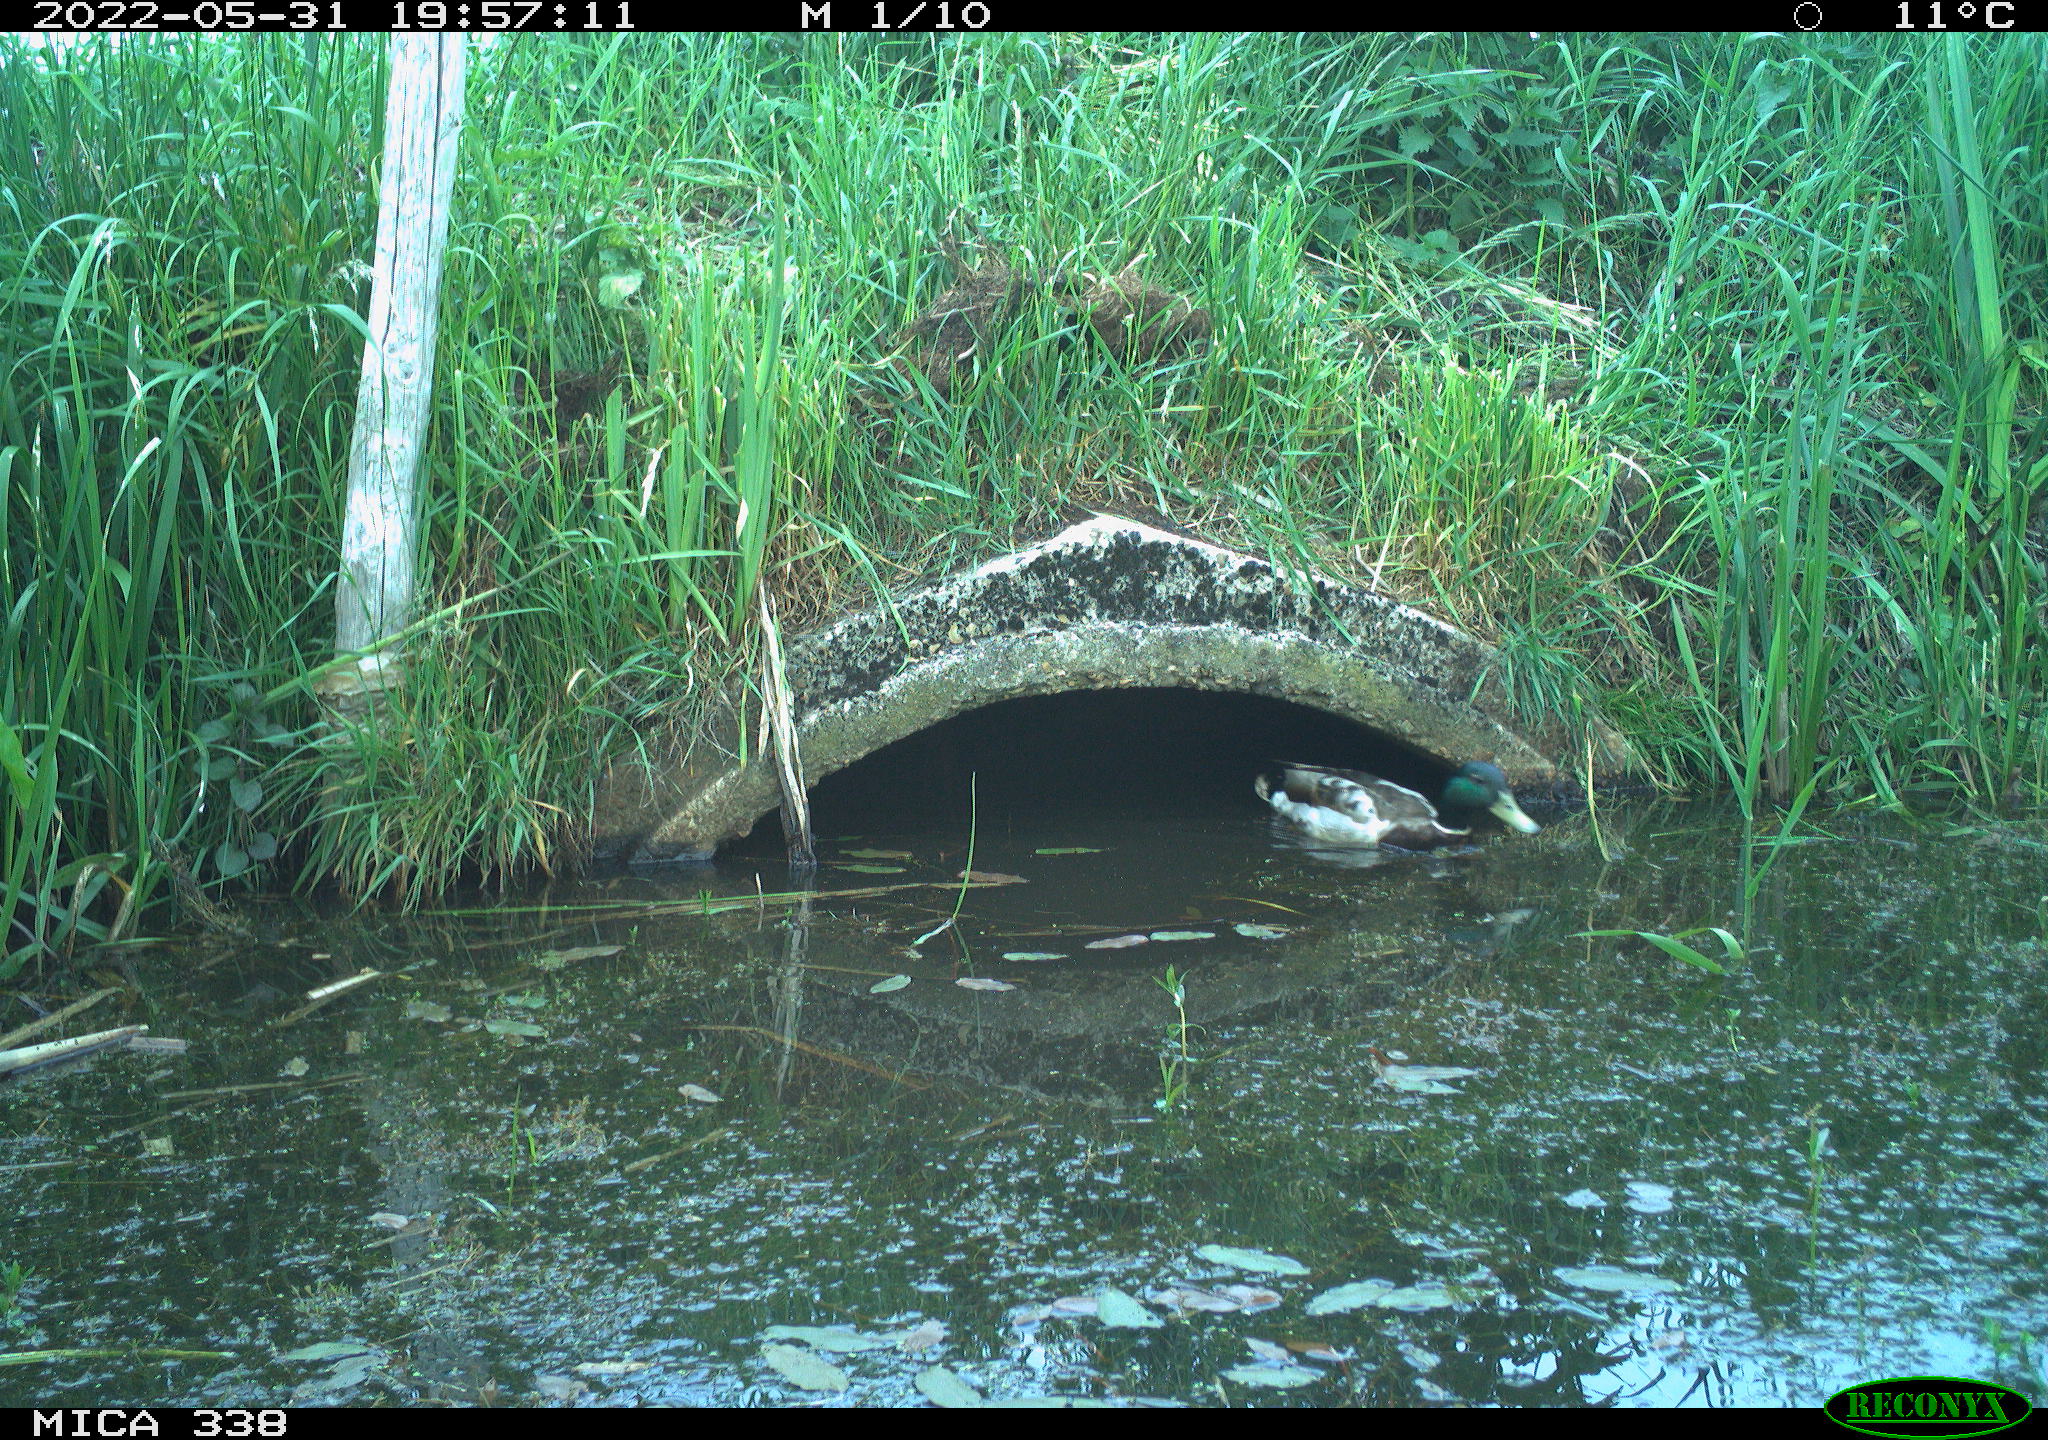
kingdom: Animalia
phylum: Chordata
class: Aves
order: Anseriformes
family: Anatidae
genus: Anas
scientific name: Anas platyrhynchos
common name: Mallard
